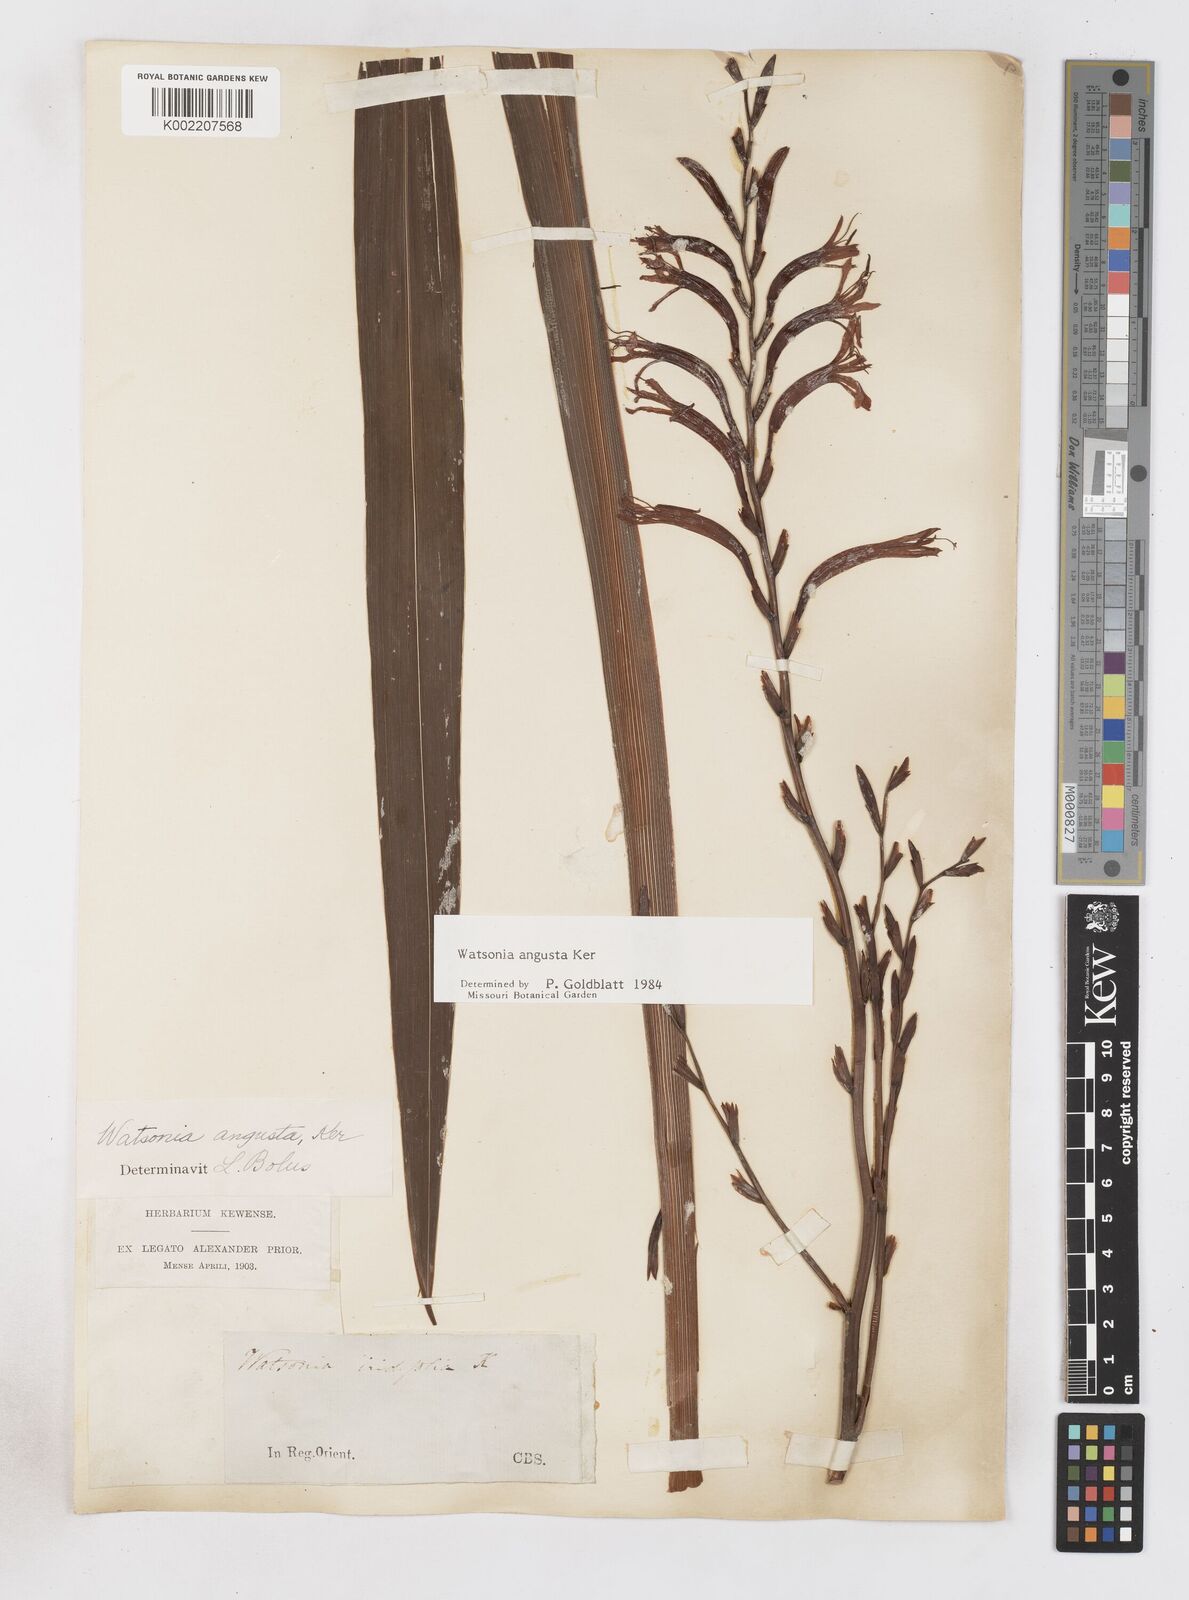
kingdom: Plantae
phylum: Tracheophyta
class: Liliopsida
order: Asparagales
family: Iridaceae
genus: Watsonia
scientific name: Watsonia angusta
